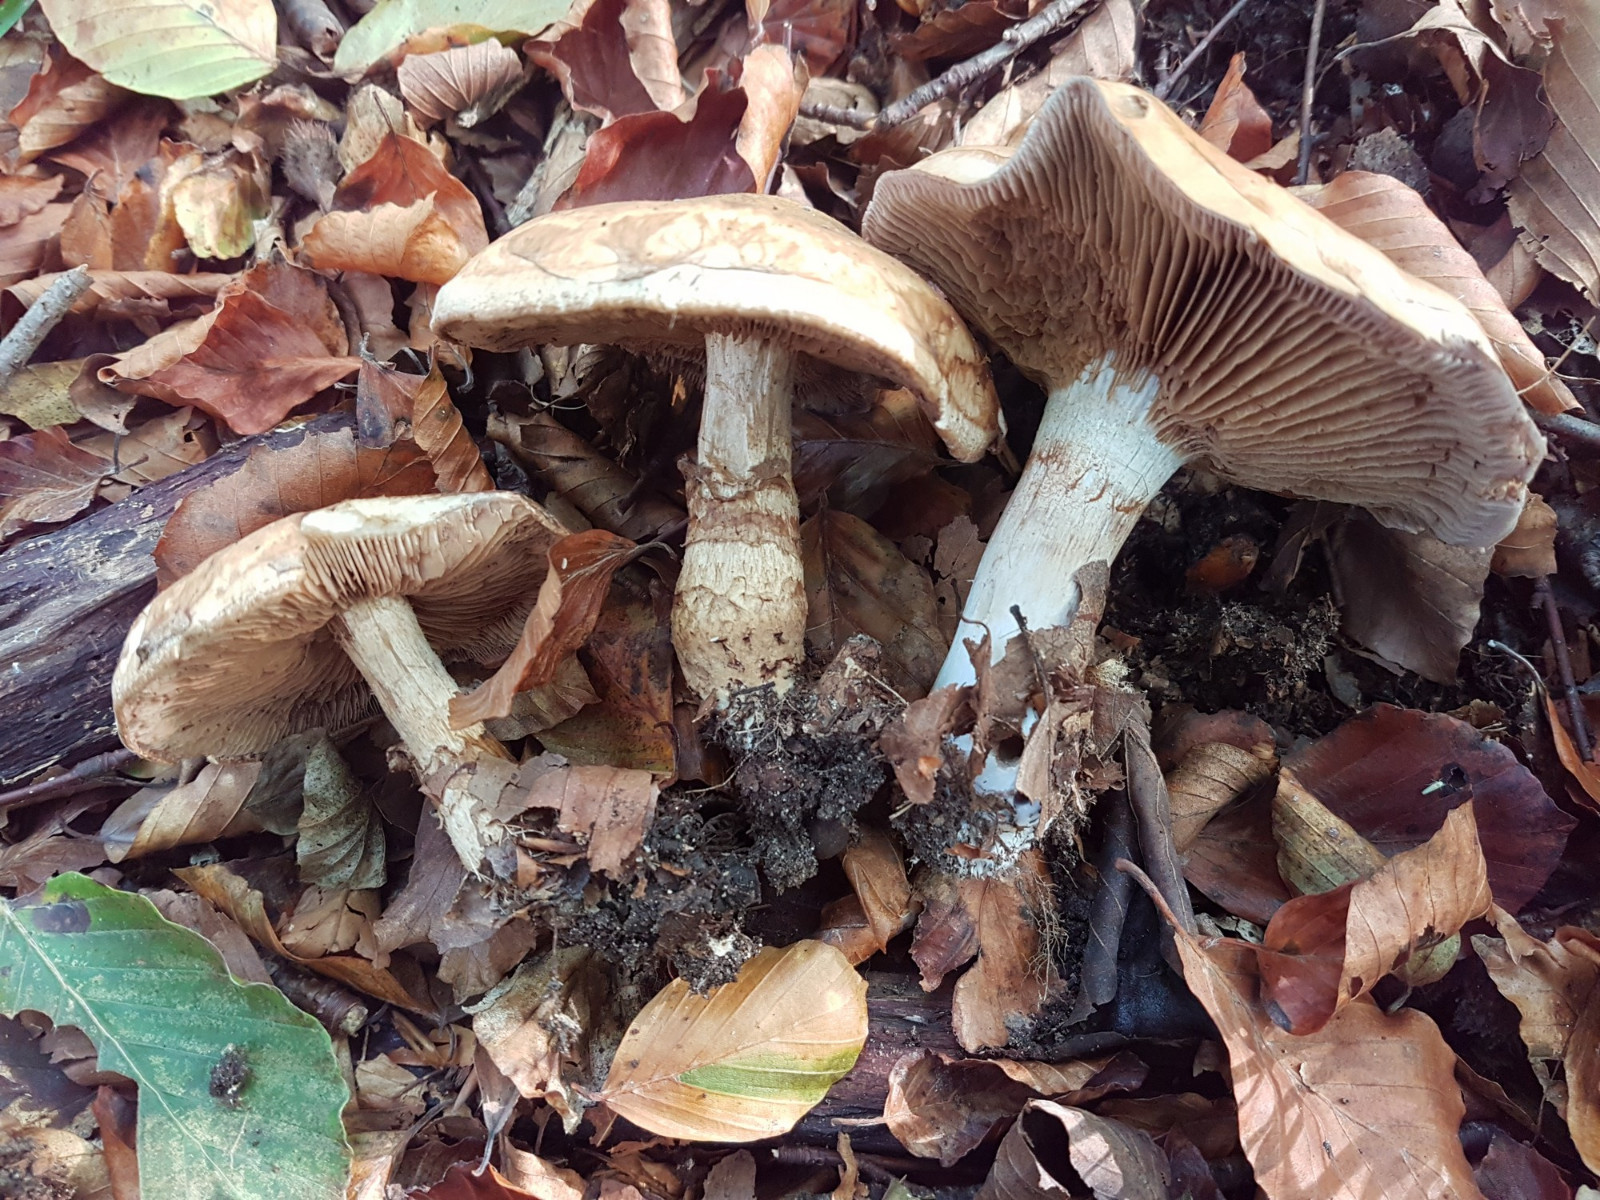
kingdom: Fungi
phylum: Basidiomycota
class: Agaricomycetes
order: Agaricales
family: Hymenogastraceae
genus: Hebeloma
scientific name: Hebeloma radicosum
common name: pælerods-tåreblad
